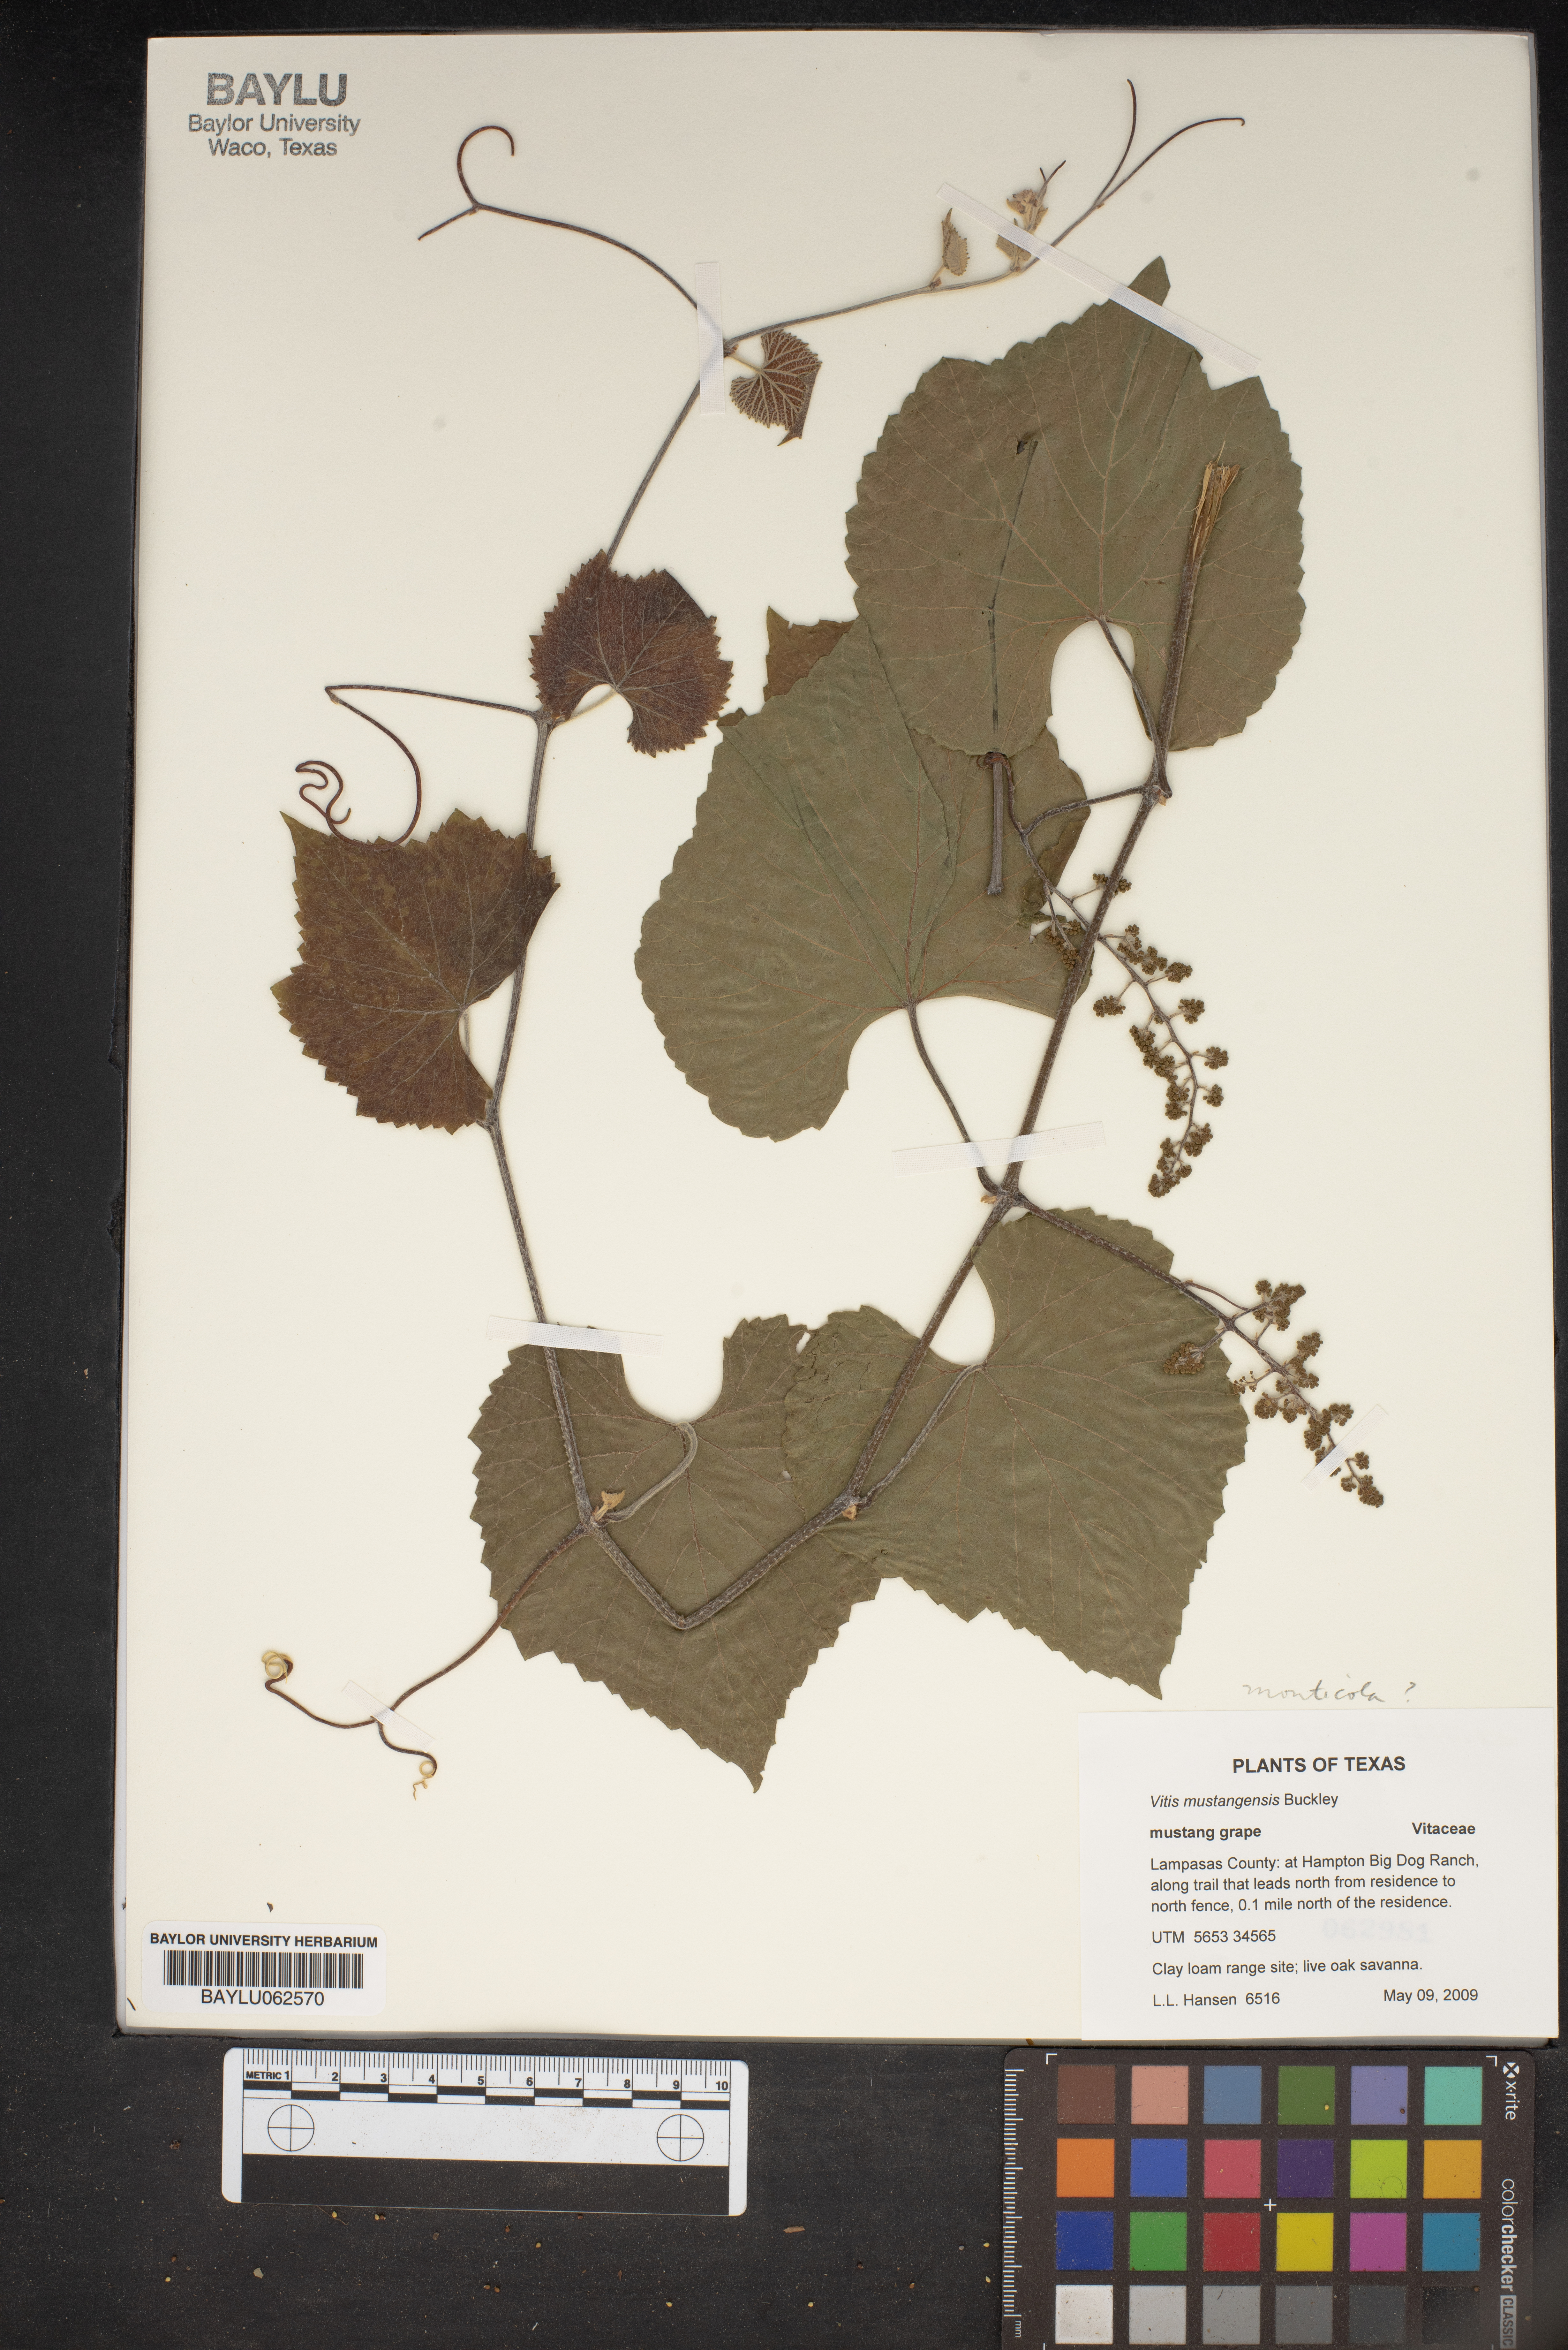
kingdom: Plantae
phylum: Tracheophyta
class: Magnoliopsida
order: Vitales
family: Vitaceae
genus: Vitis
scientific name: Vitis mustangensis
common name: Mustang grape
